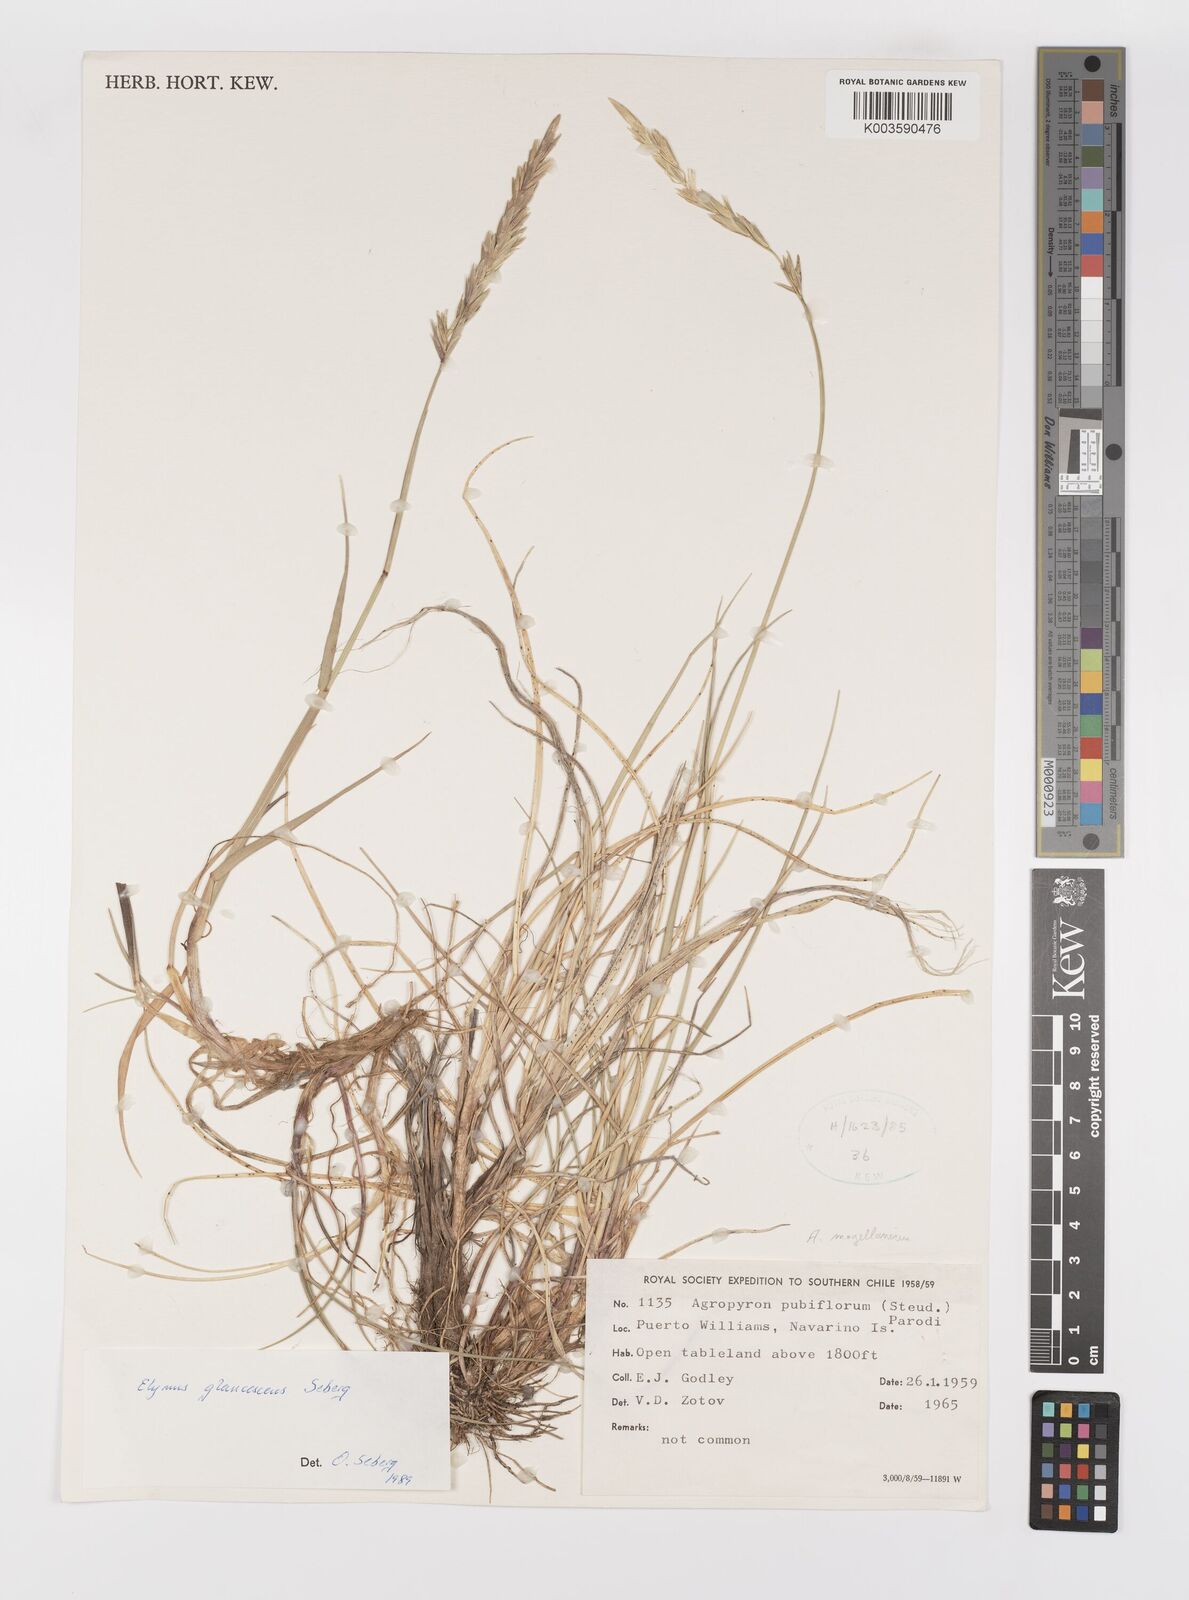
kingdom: Plantae
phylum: Tracheophyta
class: Liliopsida
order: Poales
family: Poaceae
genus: Elymus
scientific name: Elymus magellanicus
